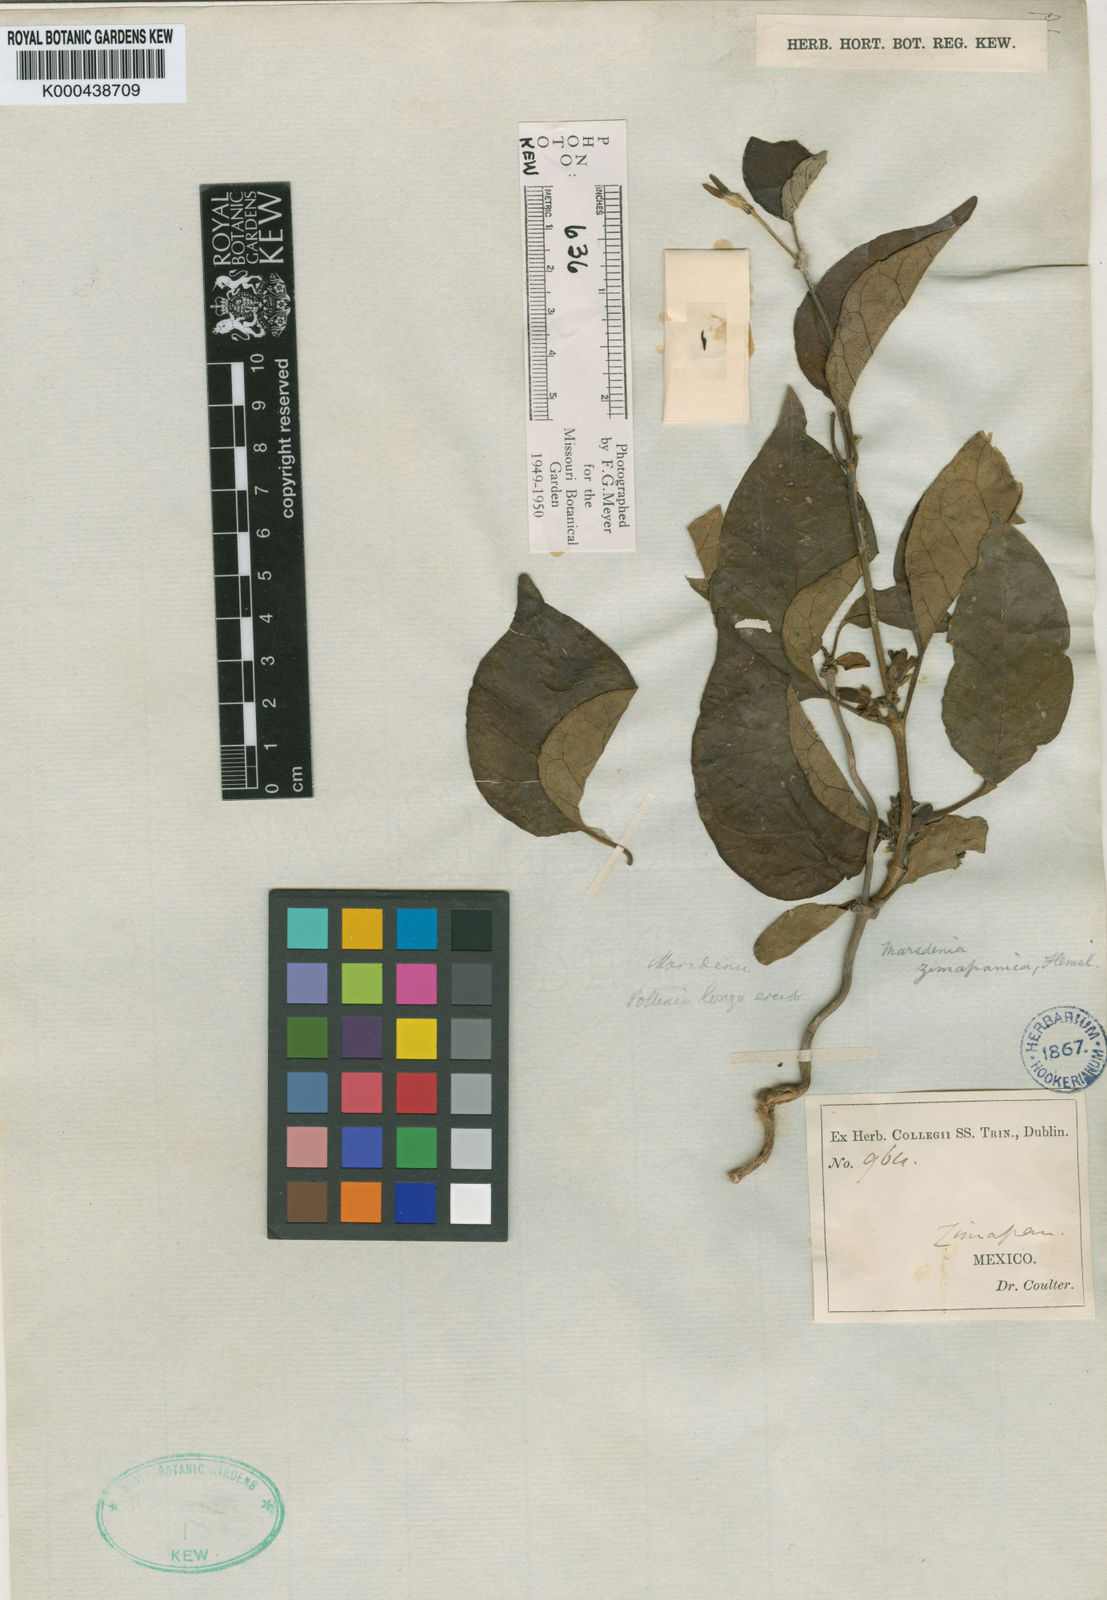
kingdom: Plantae
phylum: Tracheophyta
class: Magnoliopsida
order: Gentianales
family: Apocynaceae
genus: Ruehssia
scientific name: Ruehssia zimapanica
